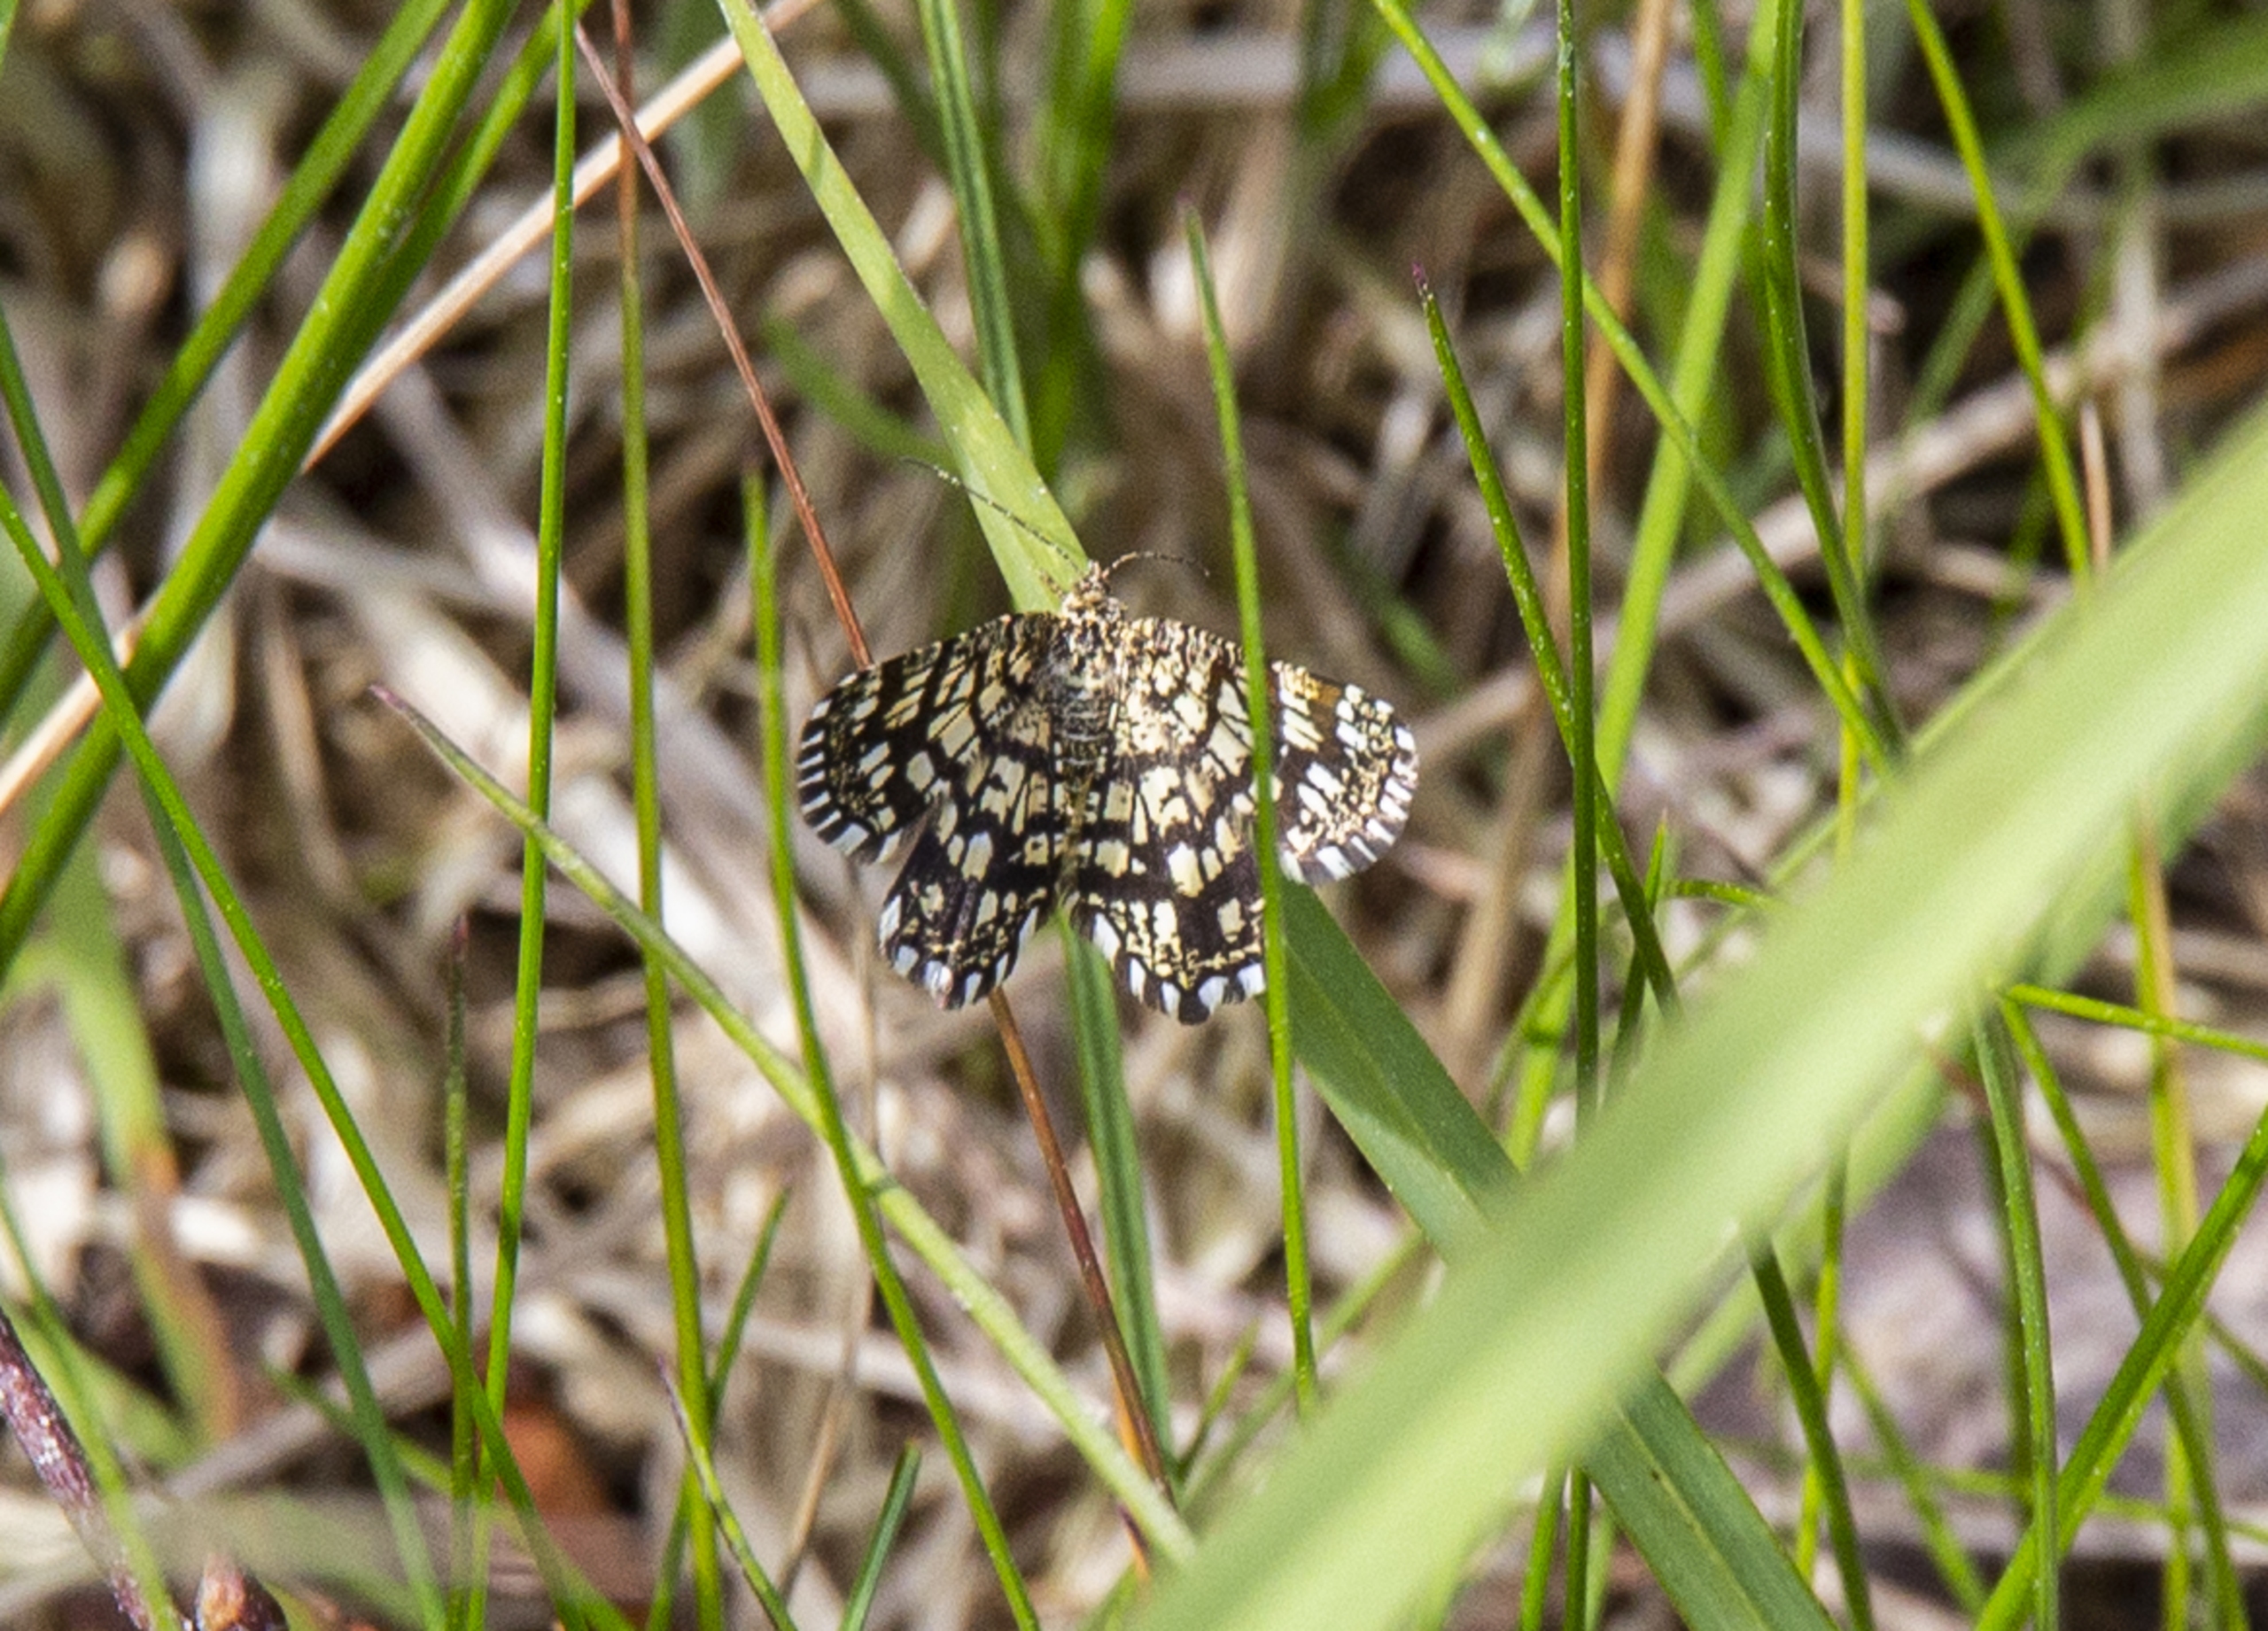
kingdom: Animalia
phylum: Arthropoda
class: Insecta
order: Lepidoptera
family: Geometridae
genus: Chiasmia
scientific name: Chiasmia clathrata
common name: Kløvermåler
